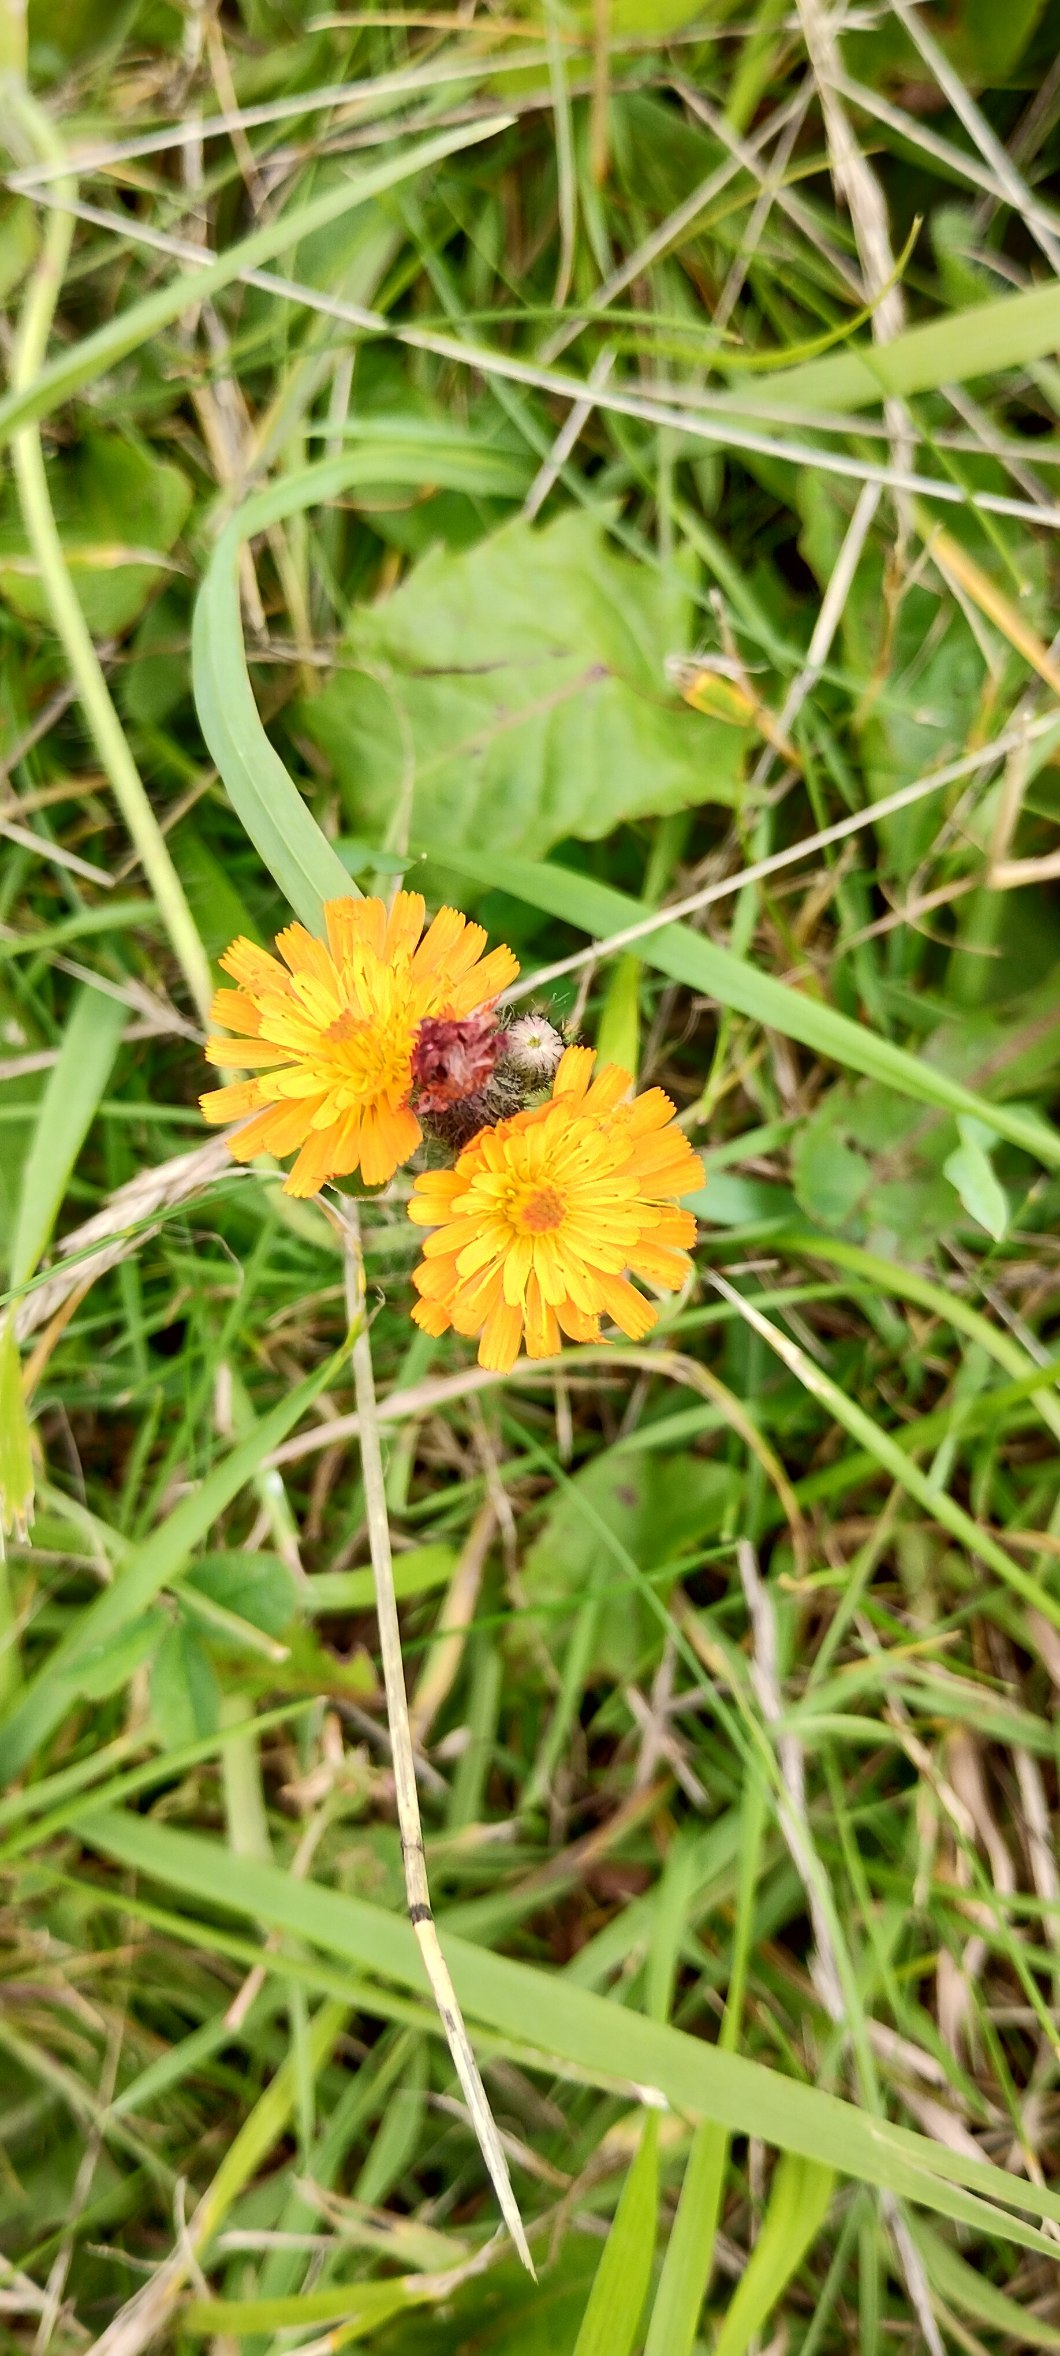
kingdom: Plantae
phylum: Tracheophyta
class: Magnoliopsida
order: Asterales
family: Asteraceae
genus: Pilosella
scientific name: Pilosella
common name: Pomerans-høgeurt × håret høgeurt
